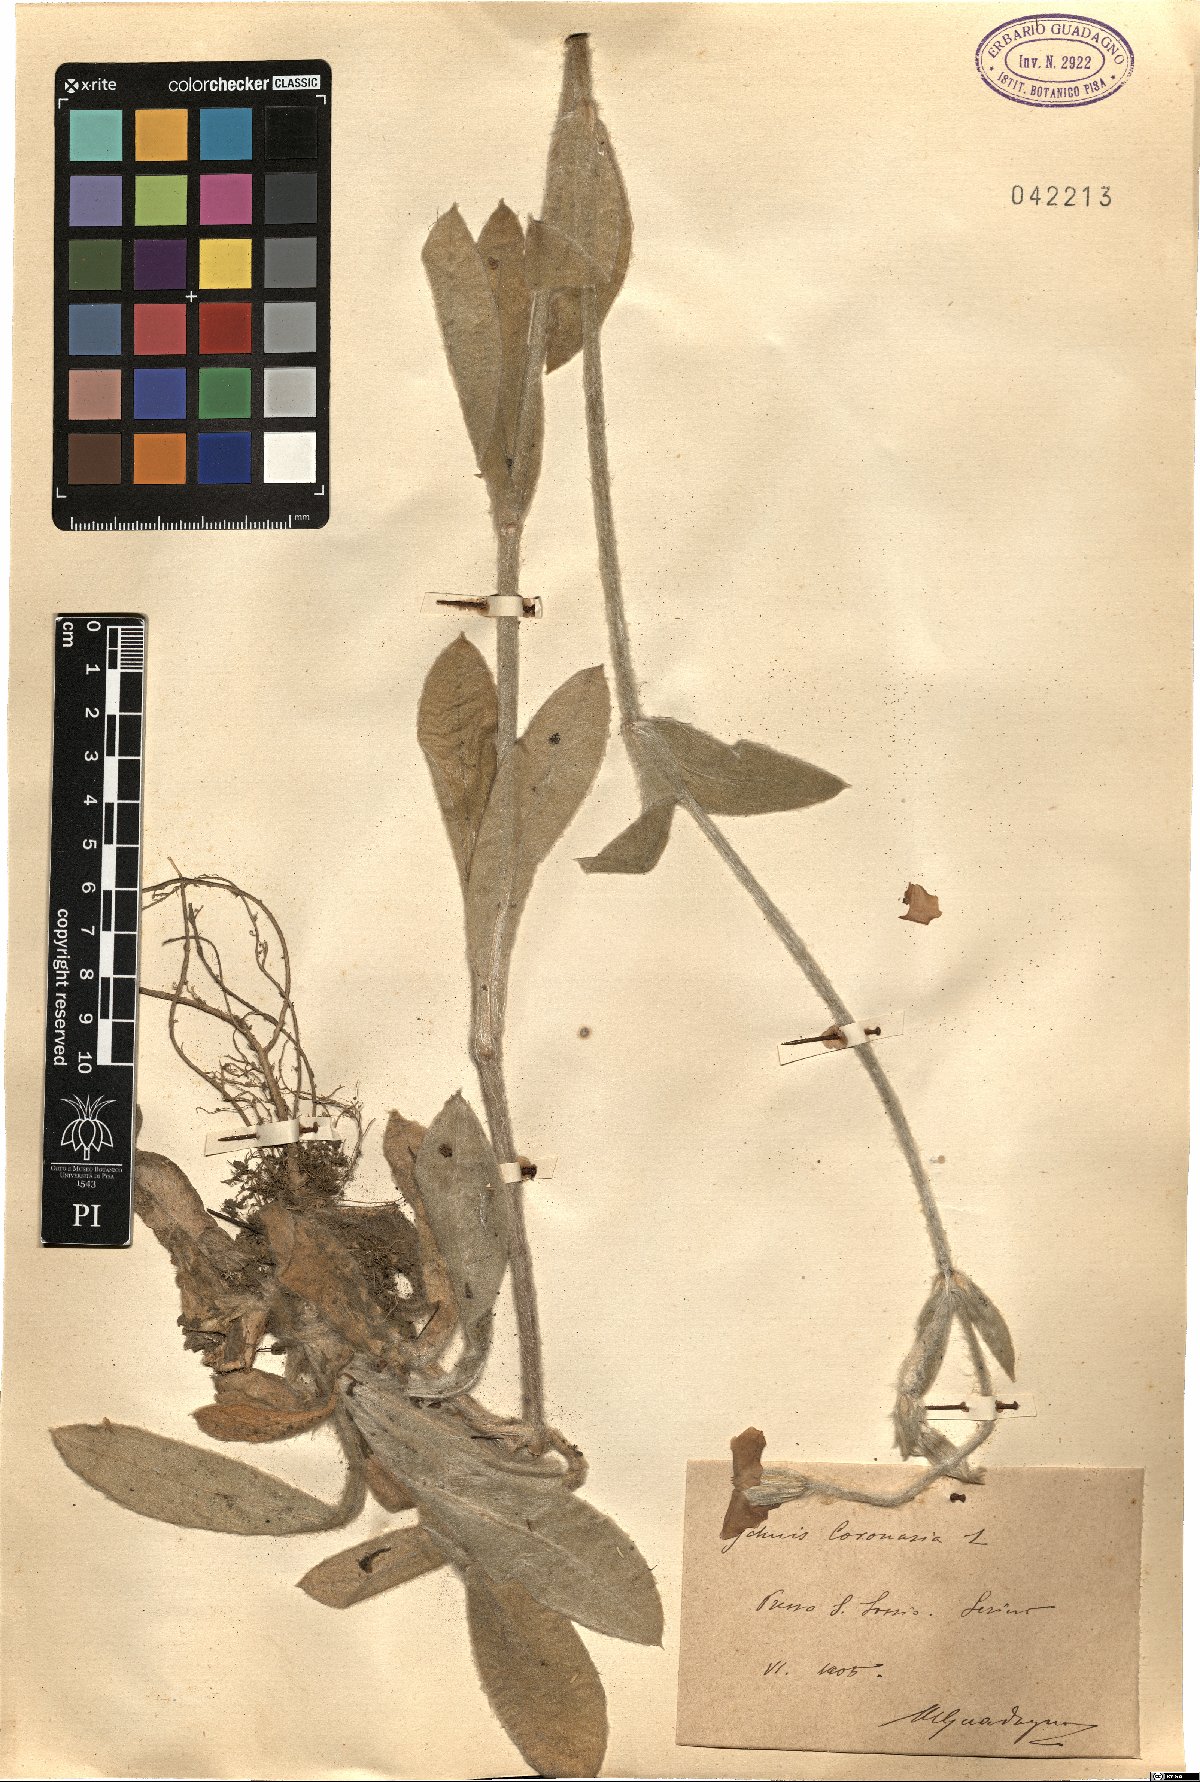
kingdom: Plantae
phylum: Tracheophyta
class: Magnoliopsida
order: Caryophyllales
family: Caryophyllaceae
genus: Silene
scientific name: Silene coronaria
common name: Rose campion
